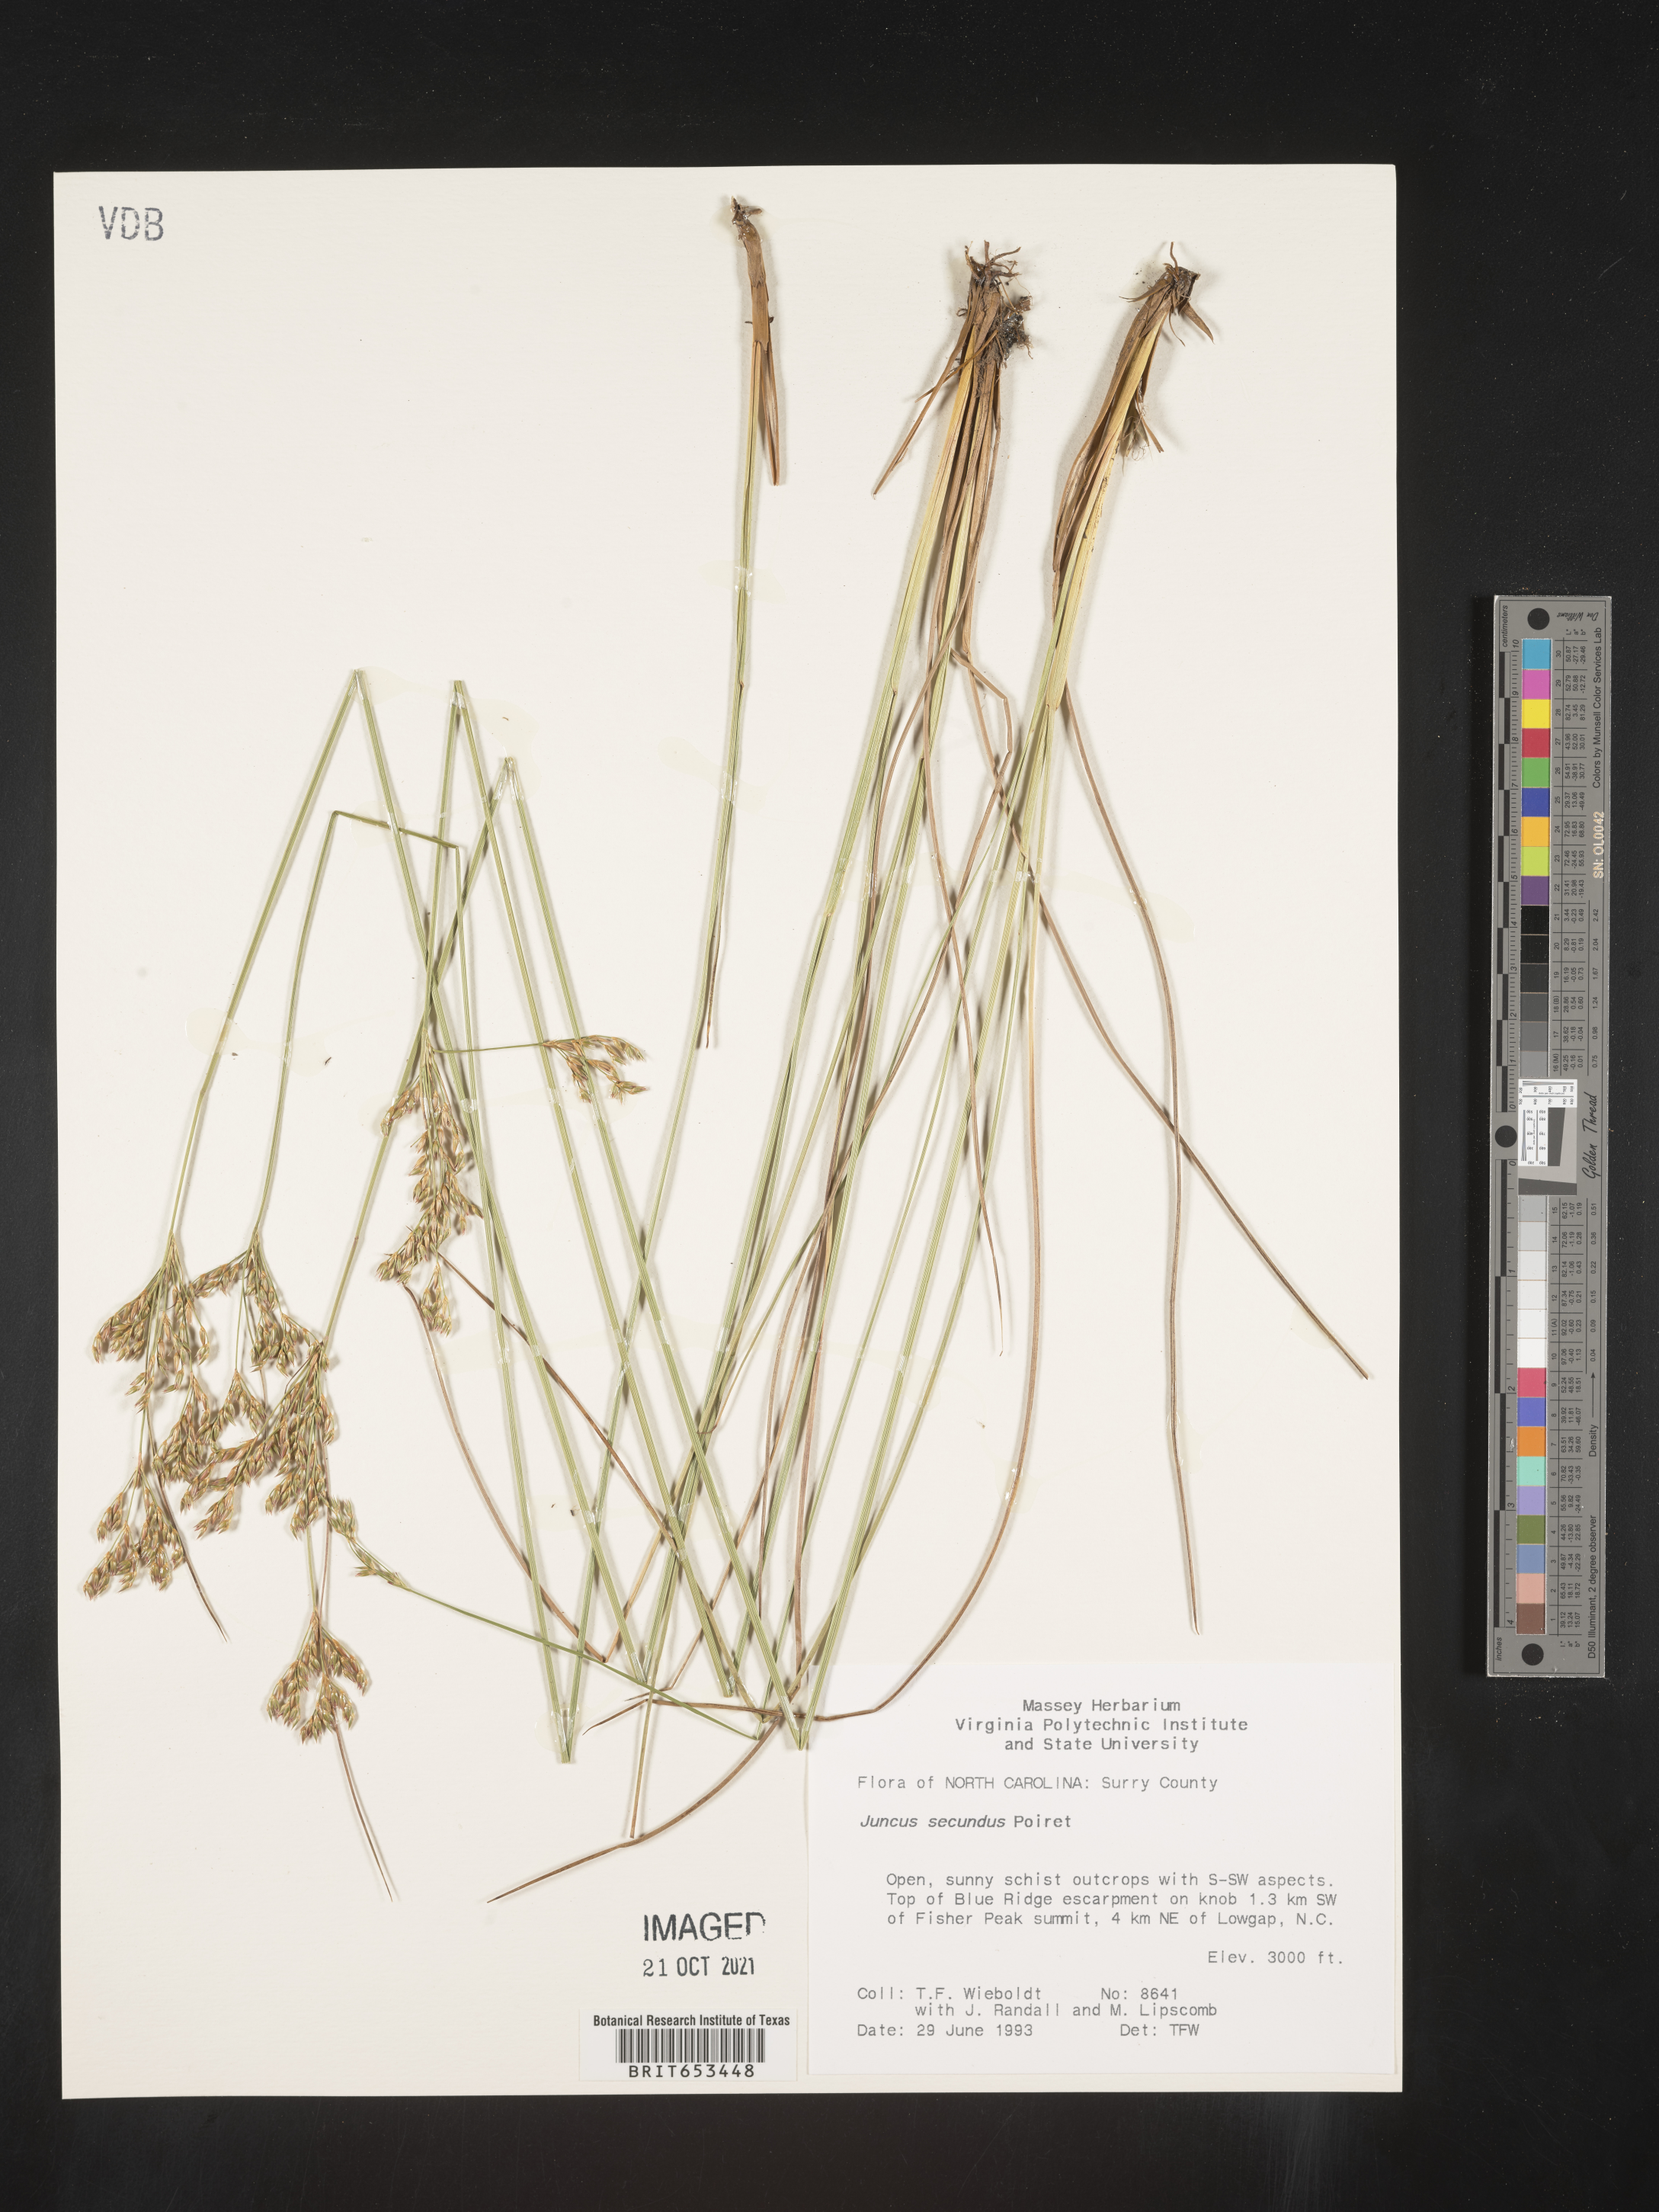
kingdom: Plantae
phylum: Tracheophyta
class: Liliopsida
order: Poales
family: Juncaceae
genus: Juncus
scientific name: Juncus secundus
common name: Lopsided rush
